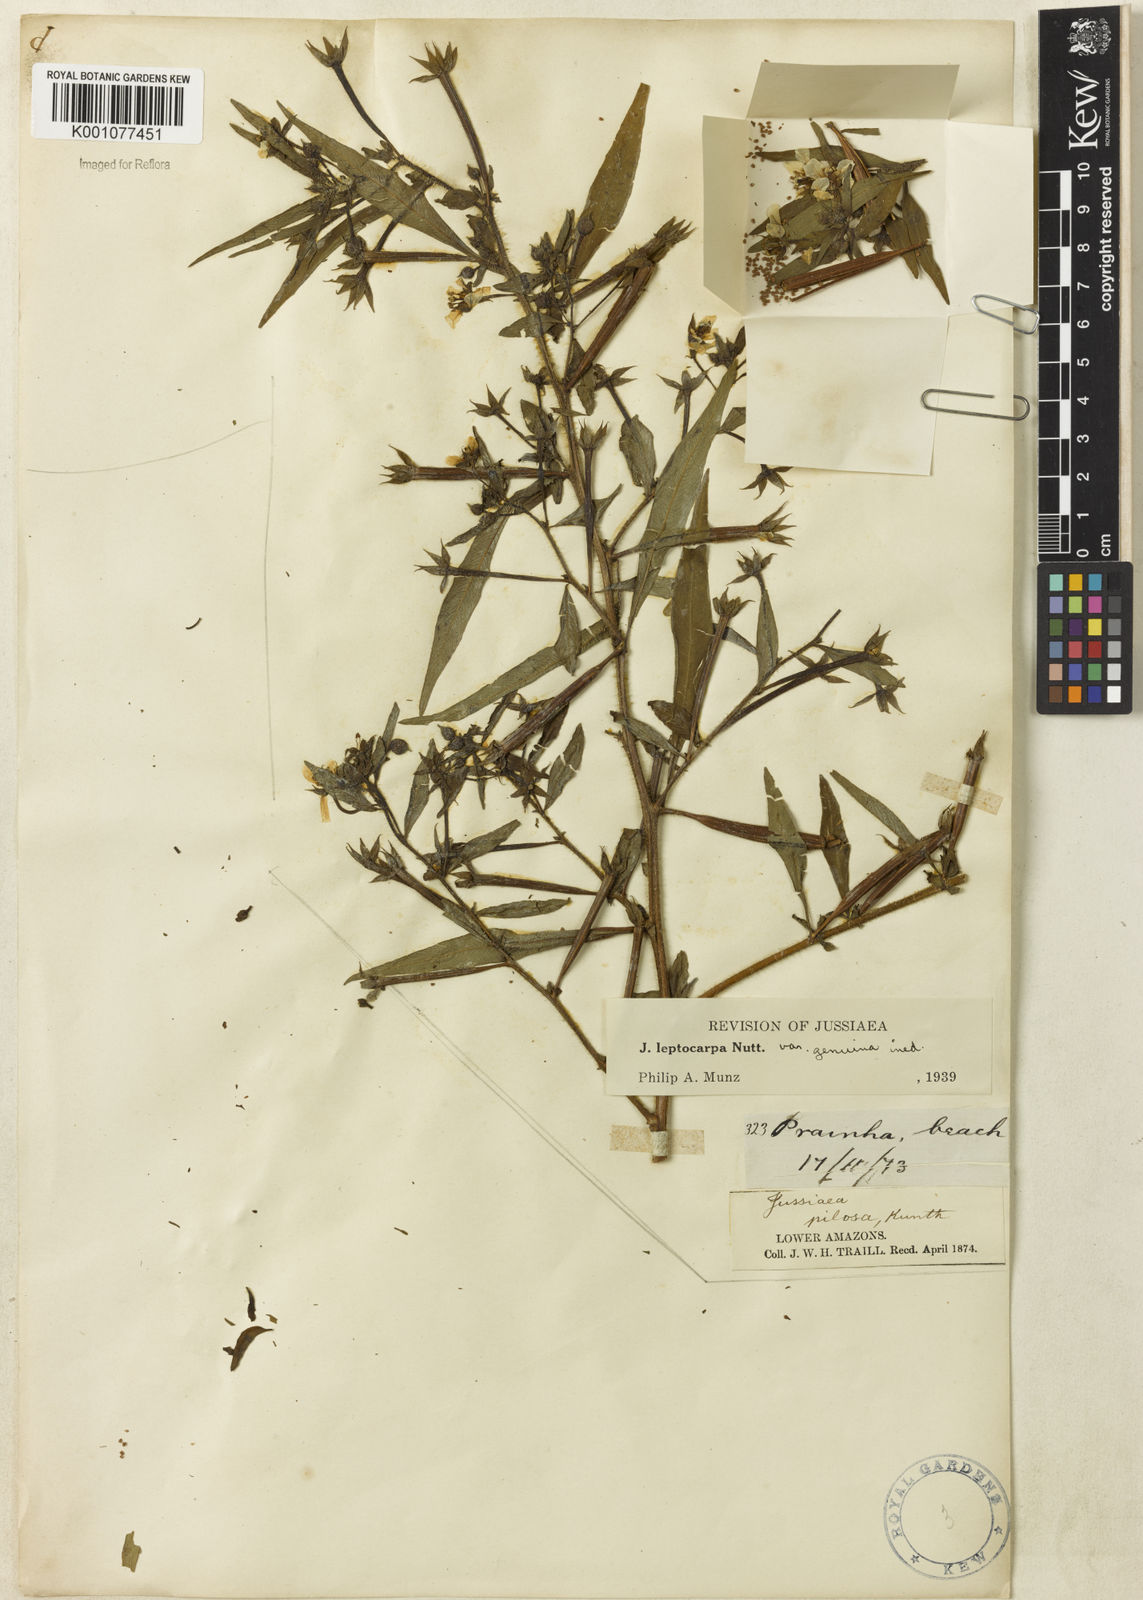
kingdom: Plantae
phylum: Tracheophyta
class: Magnoliopsida
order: Myrtales
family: Onagraceae
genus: Ludwigia
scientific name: Ludwigia leptocarpa
